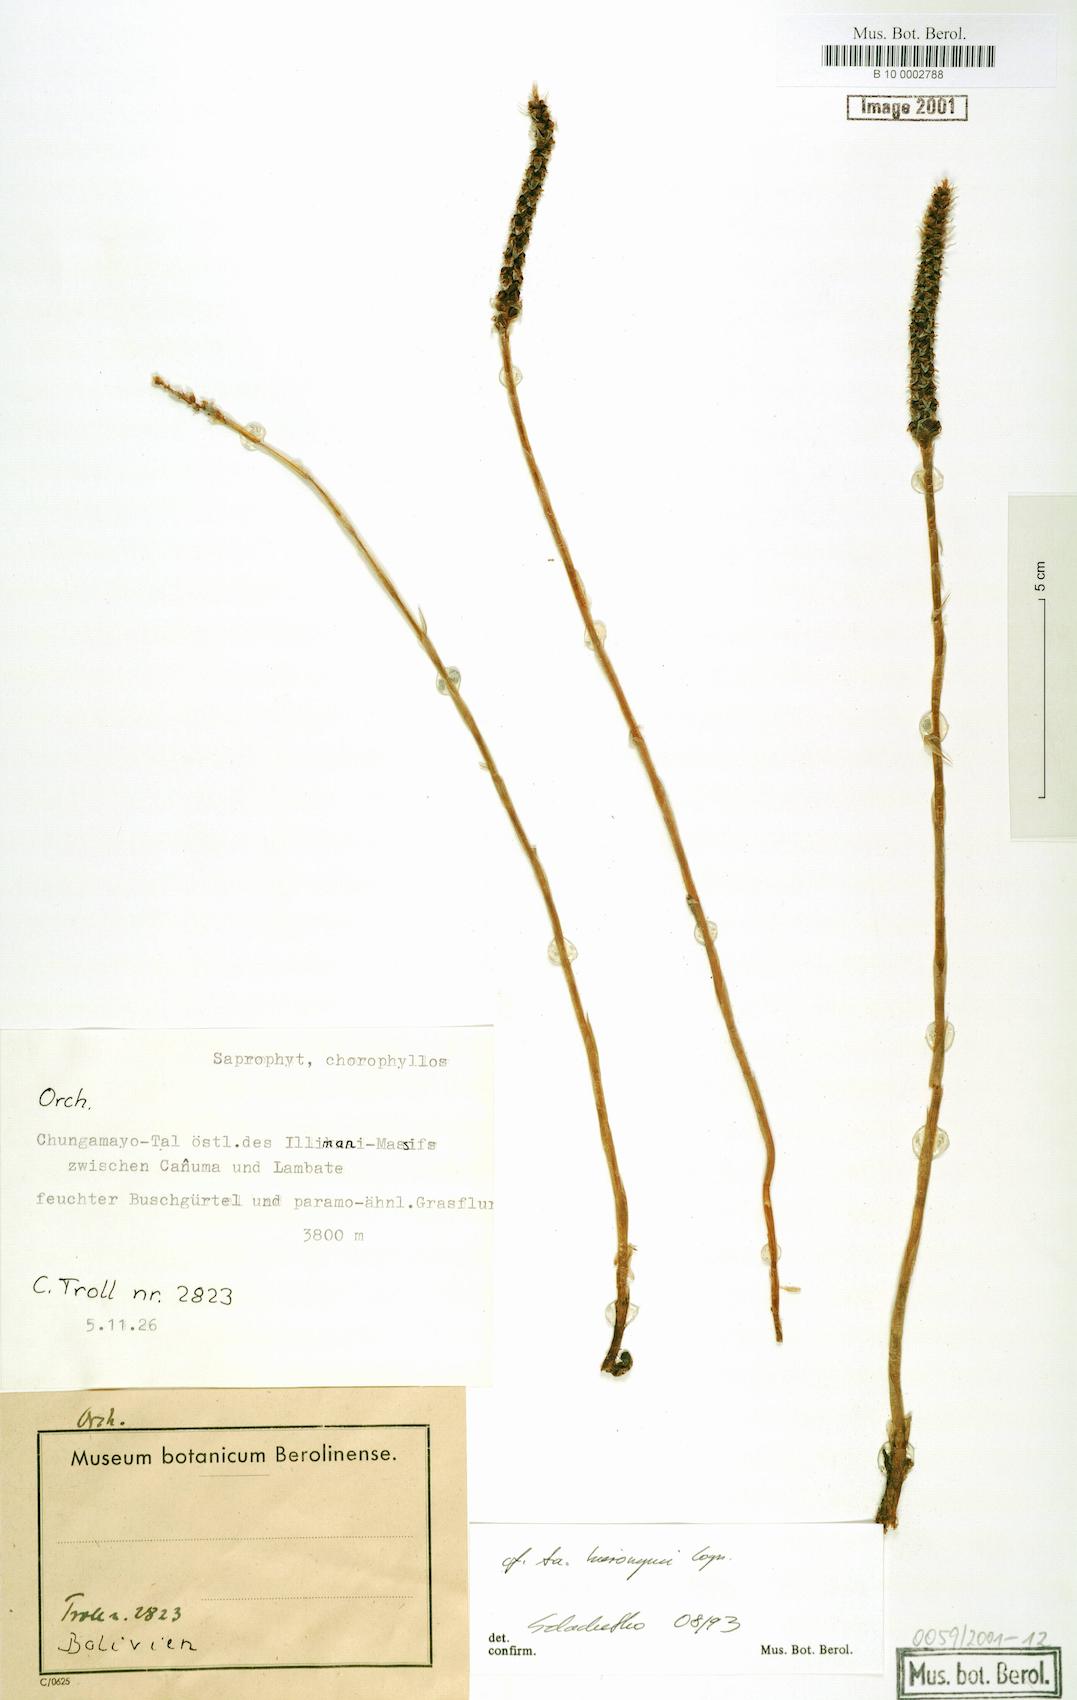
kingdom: Plantae
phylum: Tracheophyta
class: Liliopsida
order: Asparagales
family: Orchidaceae
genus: Aa
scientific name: Aa hieronymi
